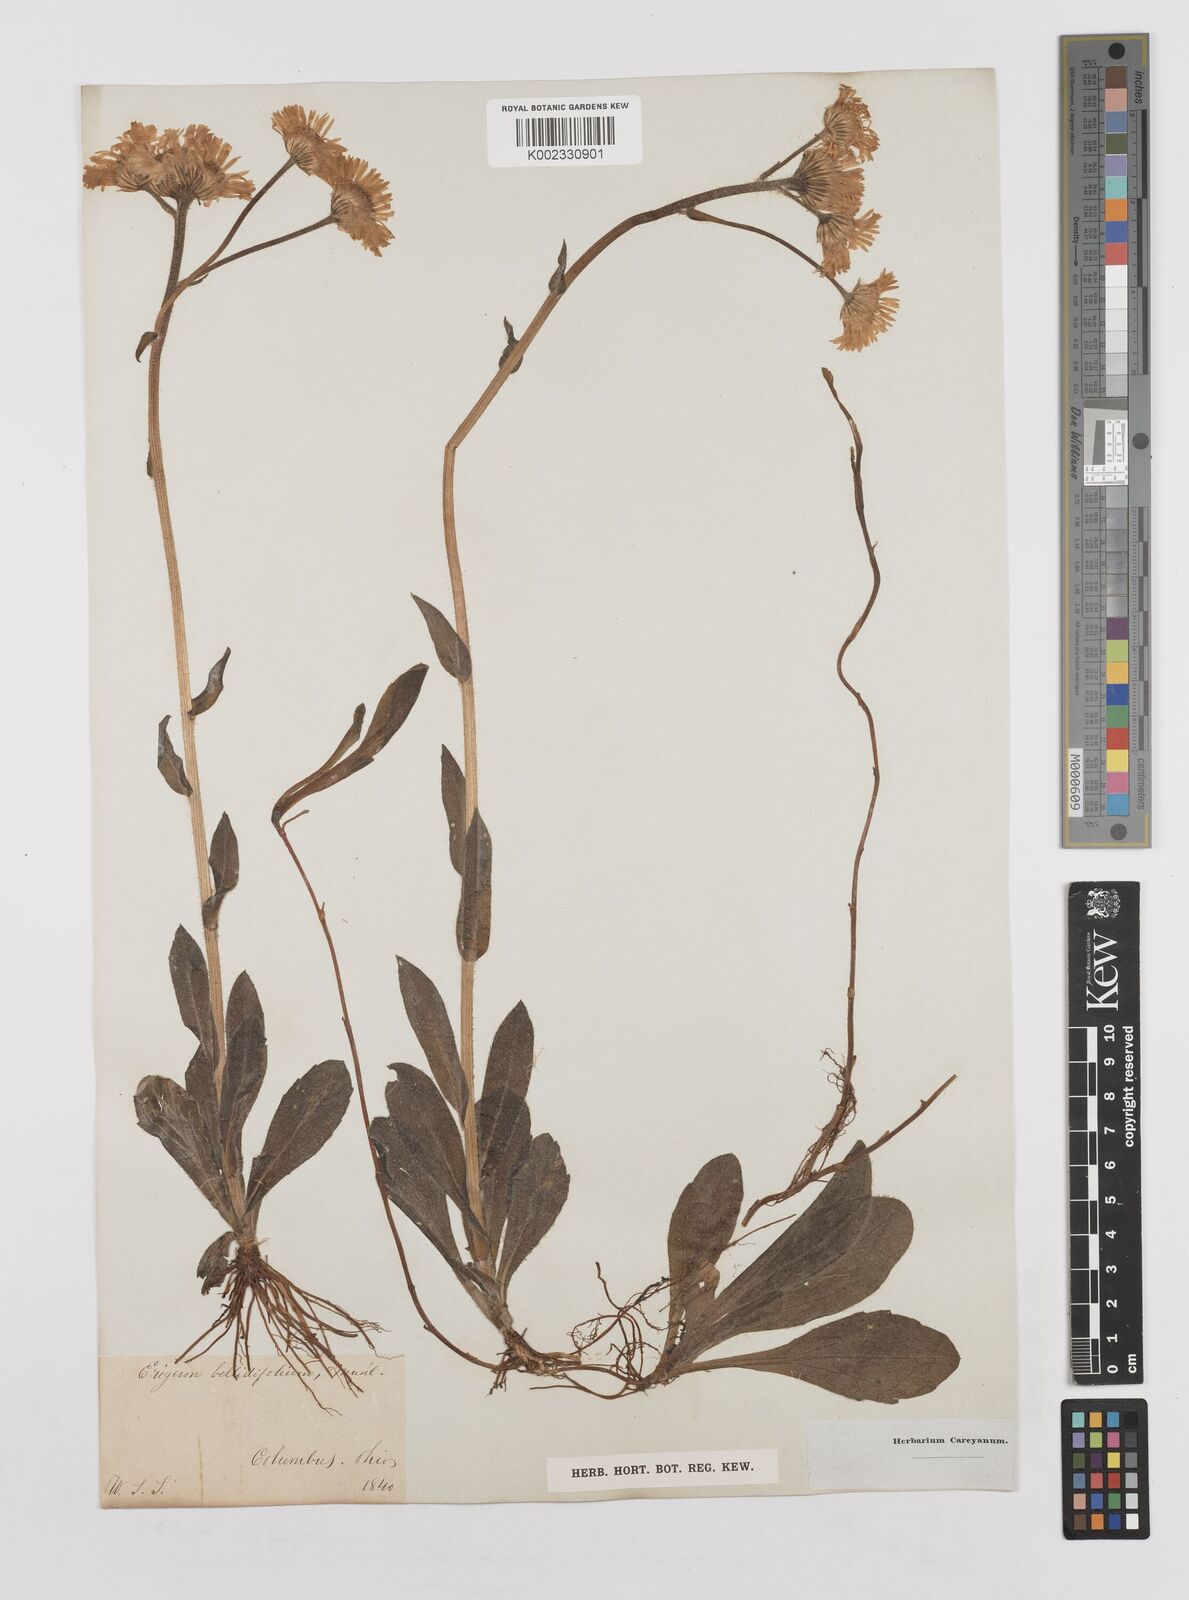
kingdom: Plantae
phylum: Tracheophyta
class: Magnoliopsida
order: Asterales
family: Asteraceae
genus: Erigeron
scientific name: Erigeron pulchellus
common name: Hairy fleabane
